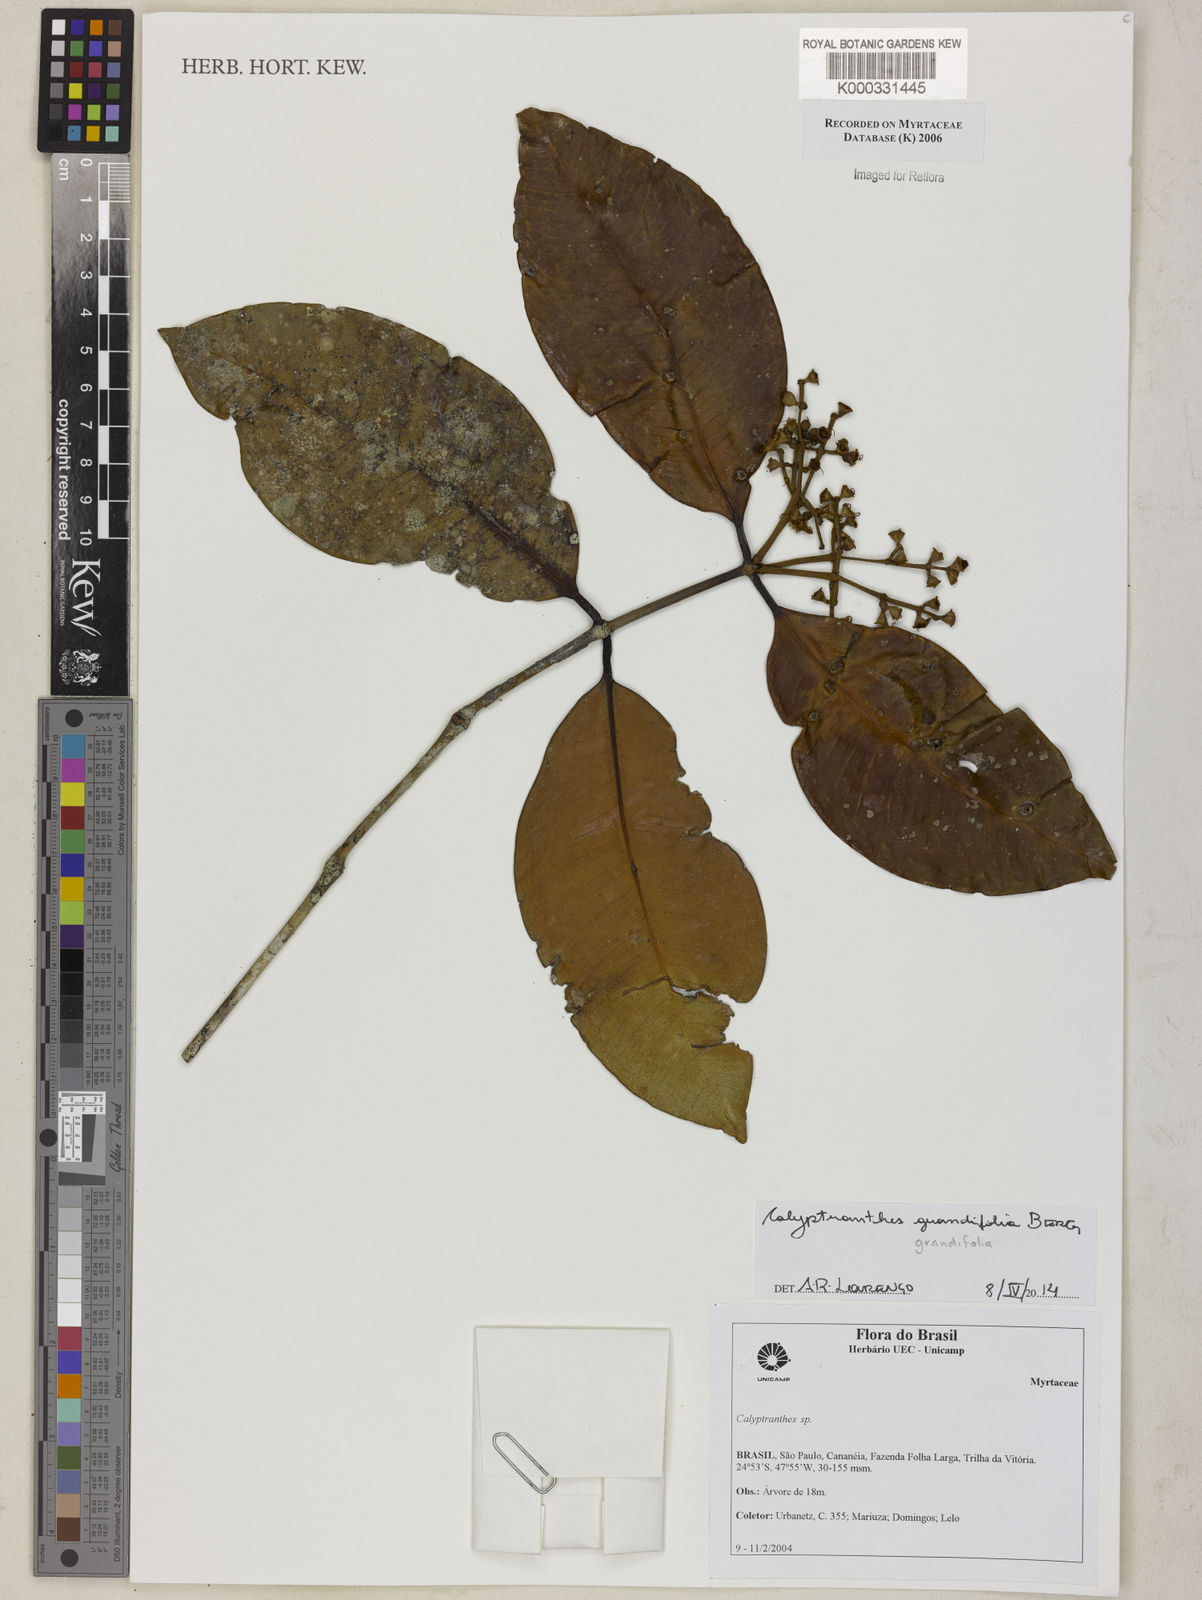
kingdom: Plantae
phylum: Tracheophyta
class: Magnoliopsida
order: Myrtales
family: Myrtaceae
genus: Calyptranthes
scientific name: Calyptranthes
